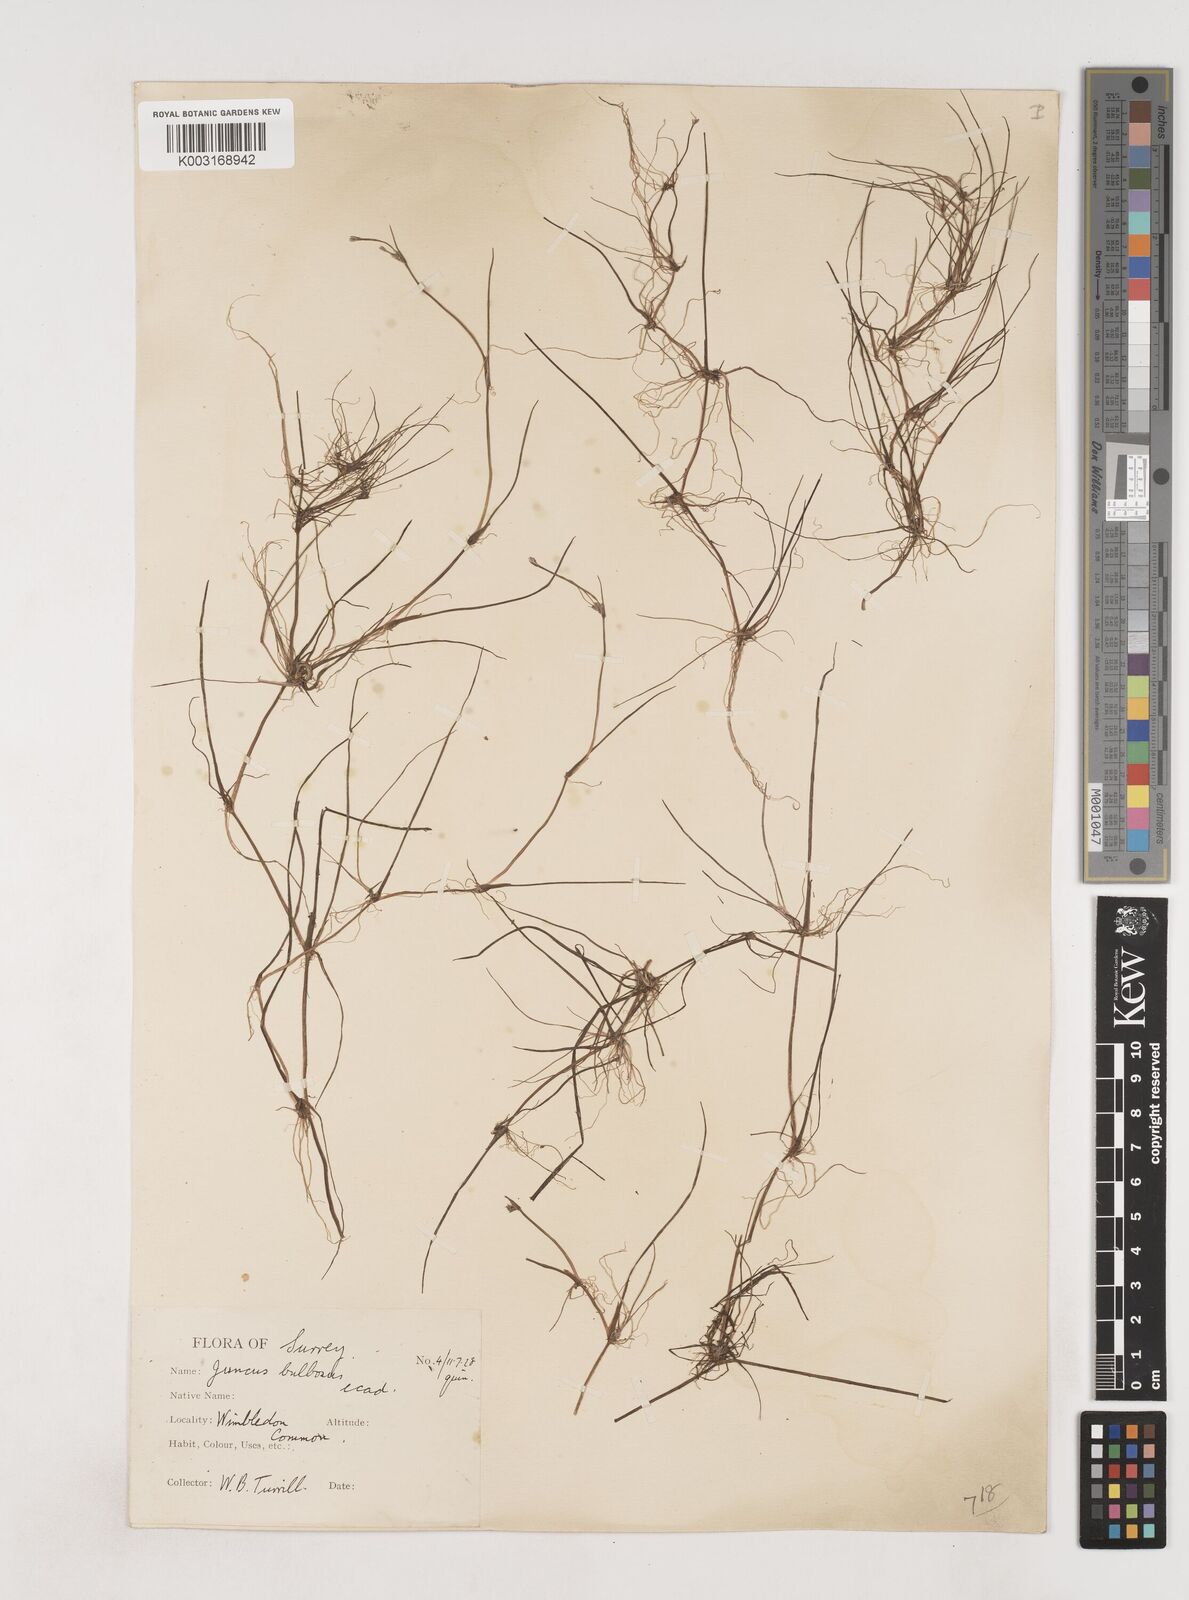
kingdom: Plantae
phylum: Tracheophyta
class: Liliopsida
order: Poales
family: Juncaceae
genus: Juncus
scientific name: Juncus bulbosus
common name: Bulbous rush
